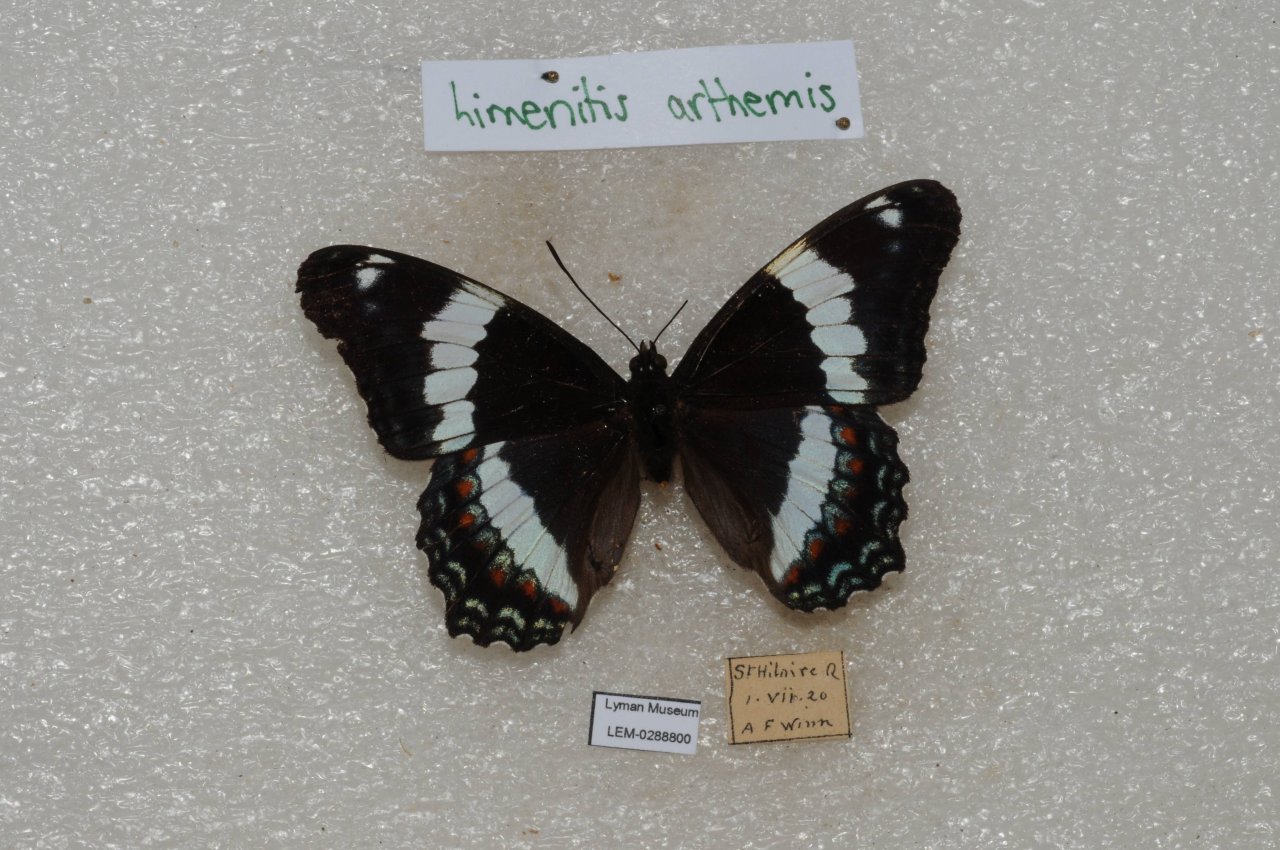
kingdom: Animalia
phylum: Arthropoda
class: Insecta
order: Lepidoptera
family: Nymphalidae
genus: Limenitis
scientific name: Limenitis arthemis
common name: Red-spotted Admiral
